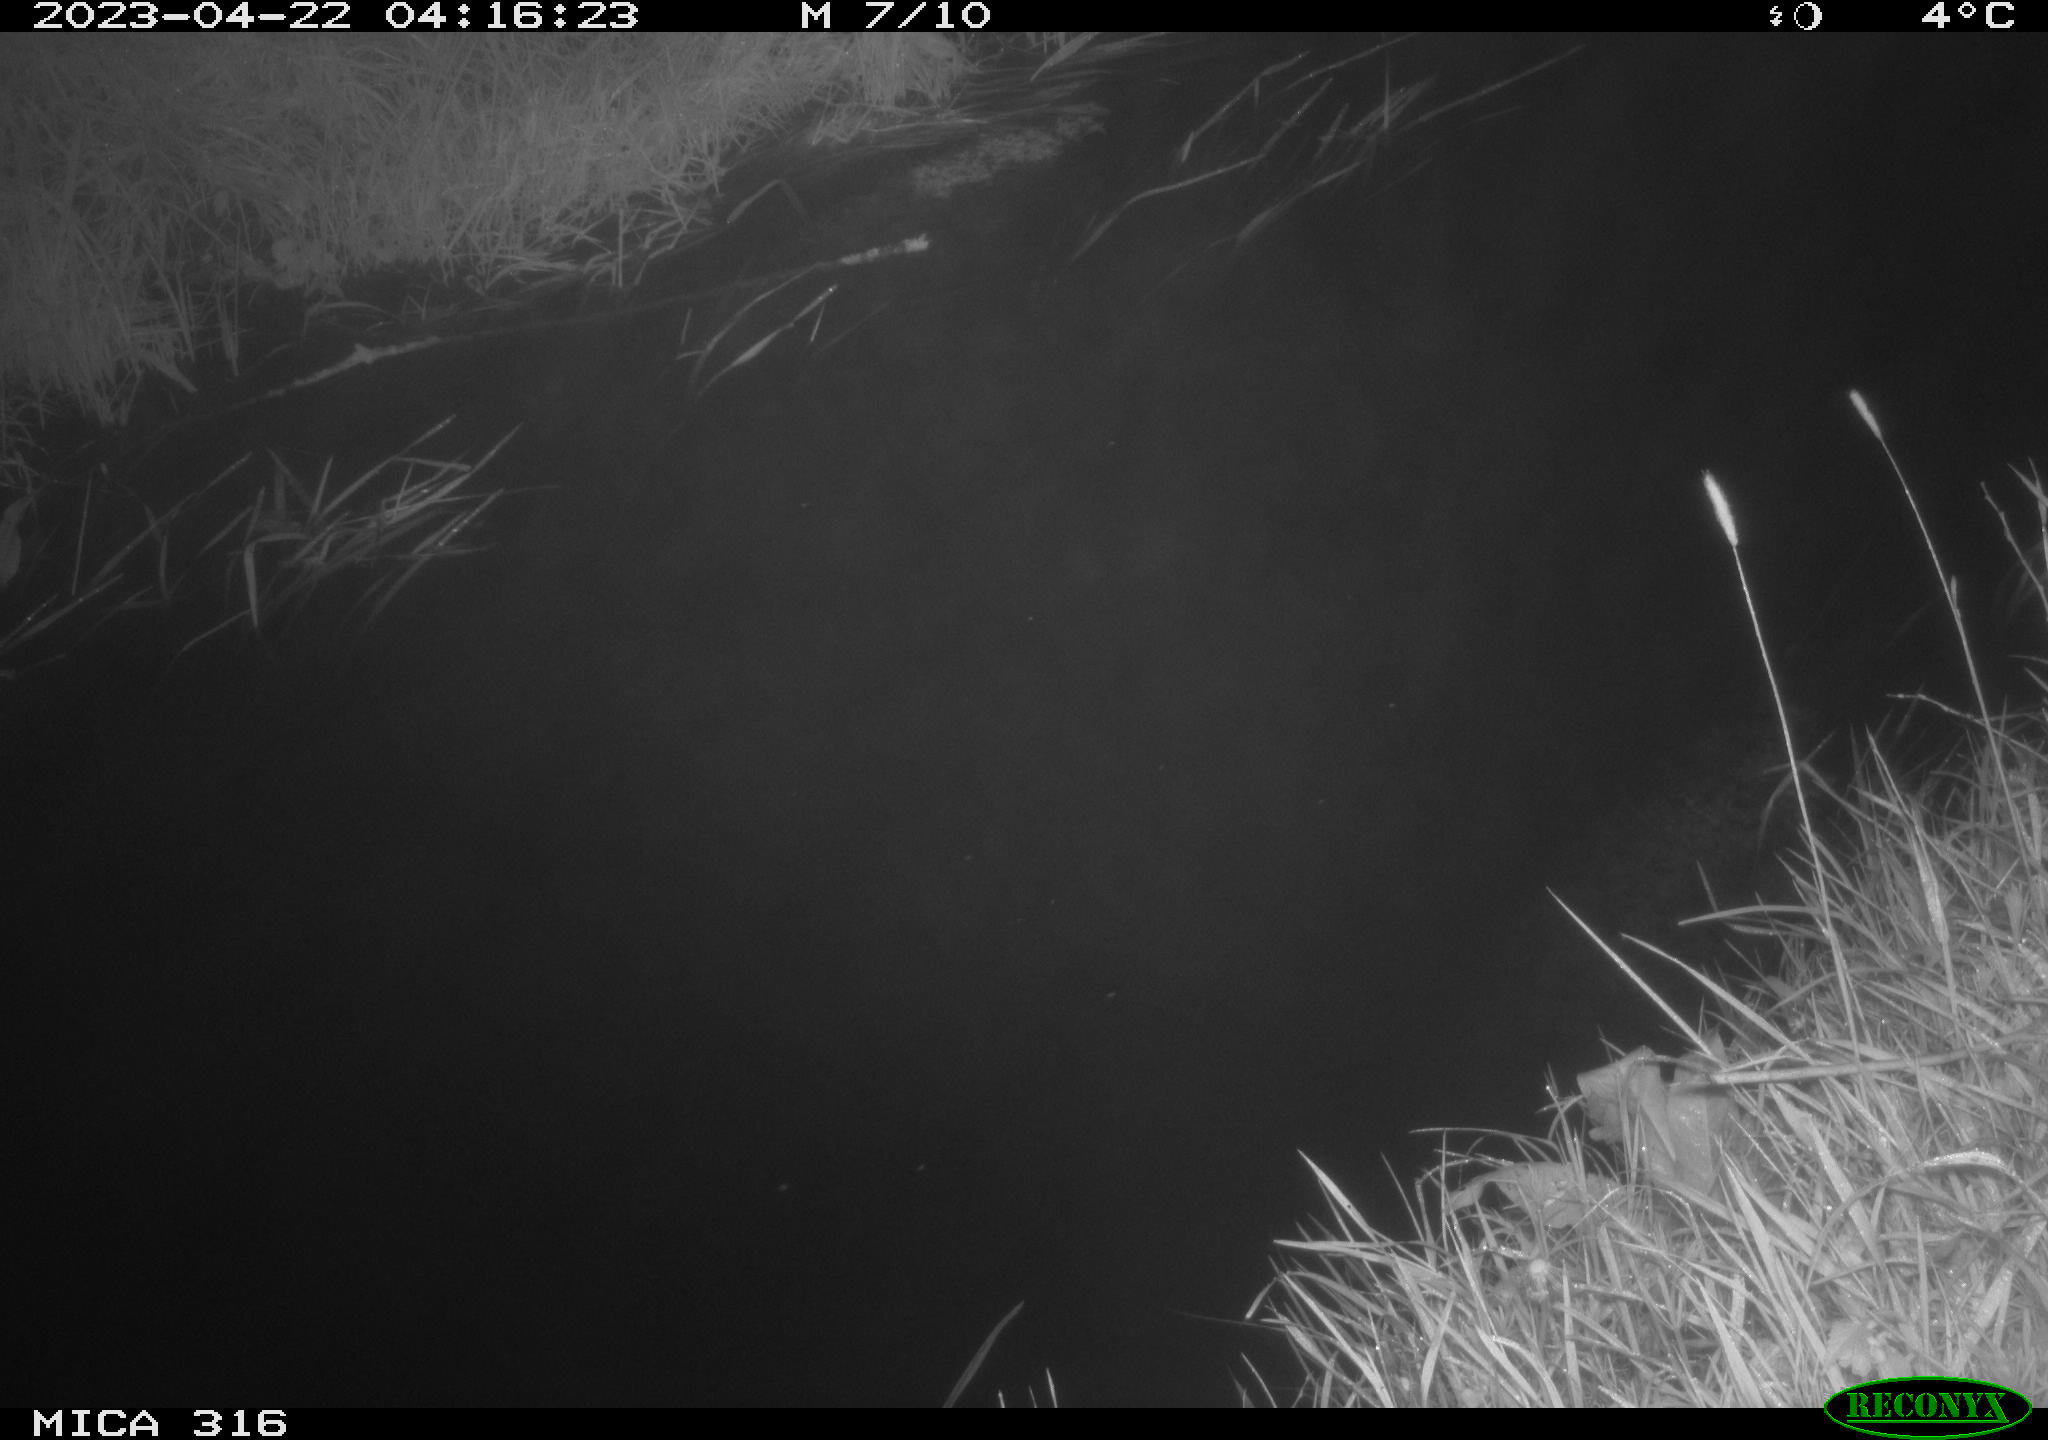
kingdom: Animalia
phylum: Chordata
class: Aves
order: Anseriformes
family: Anatidae
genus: Anas
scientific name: Anas
